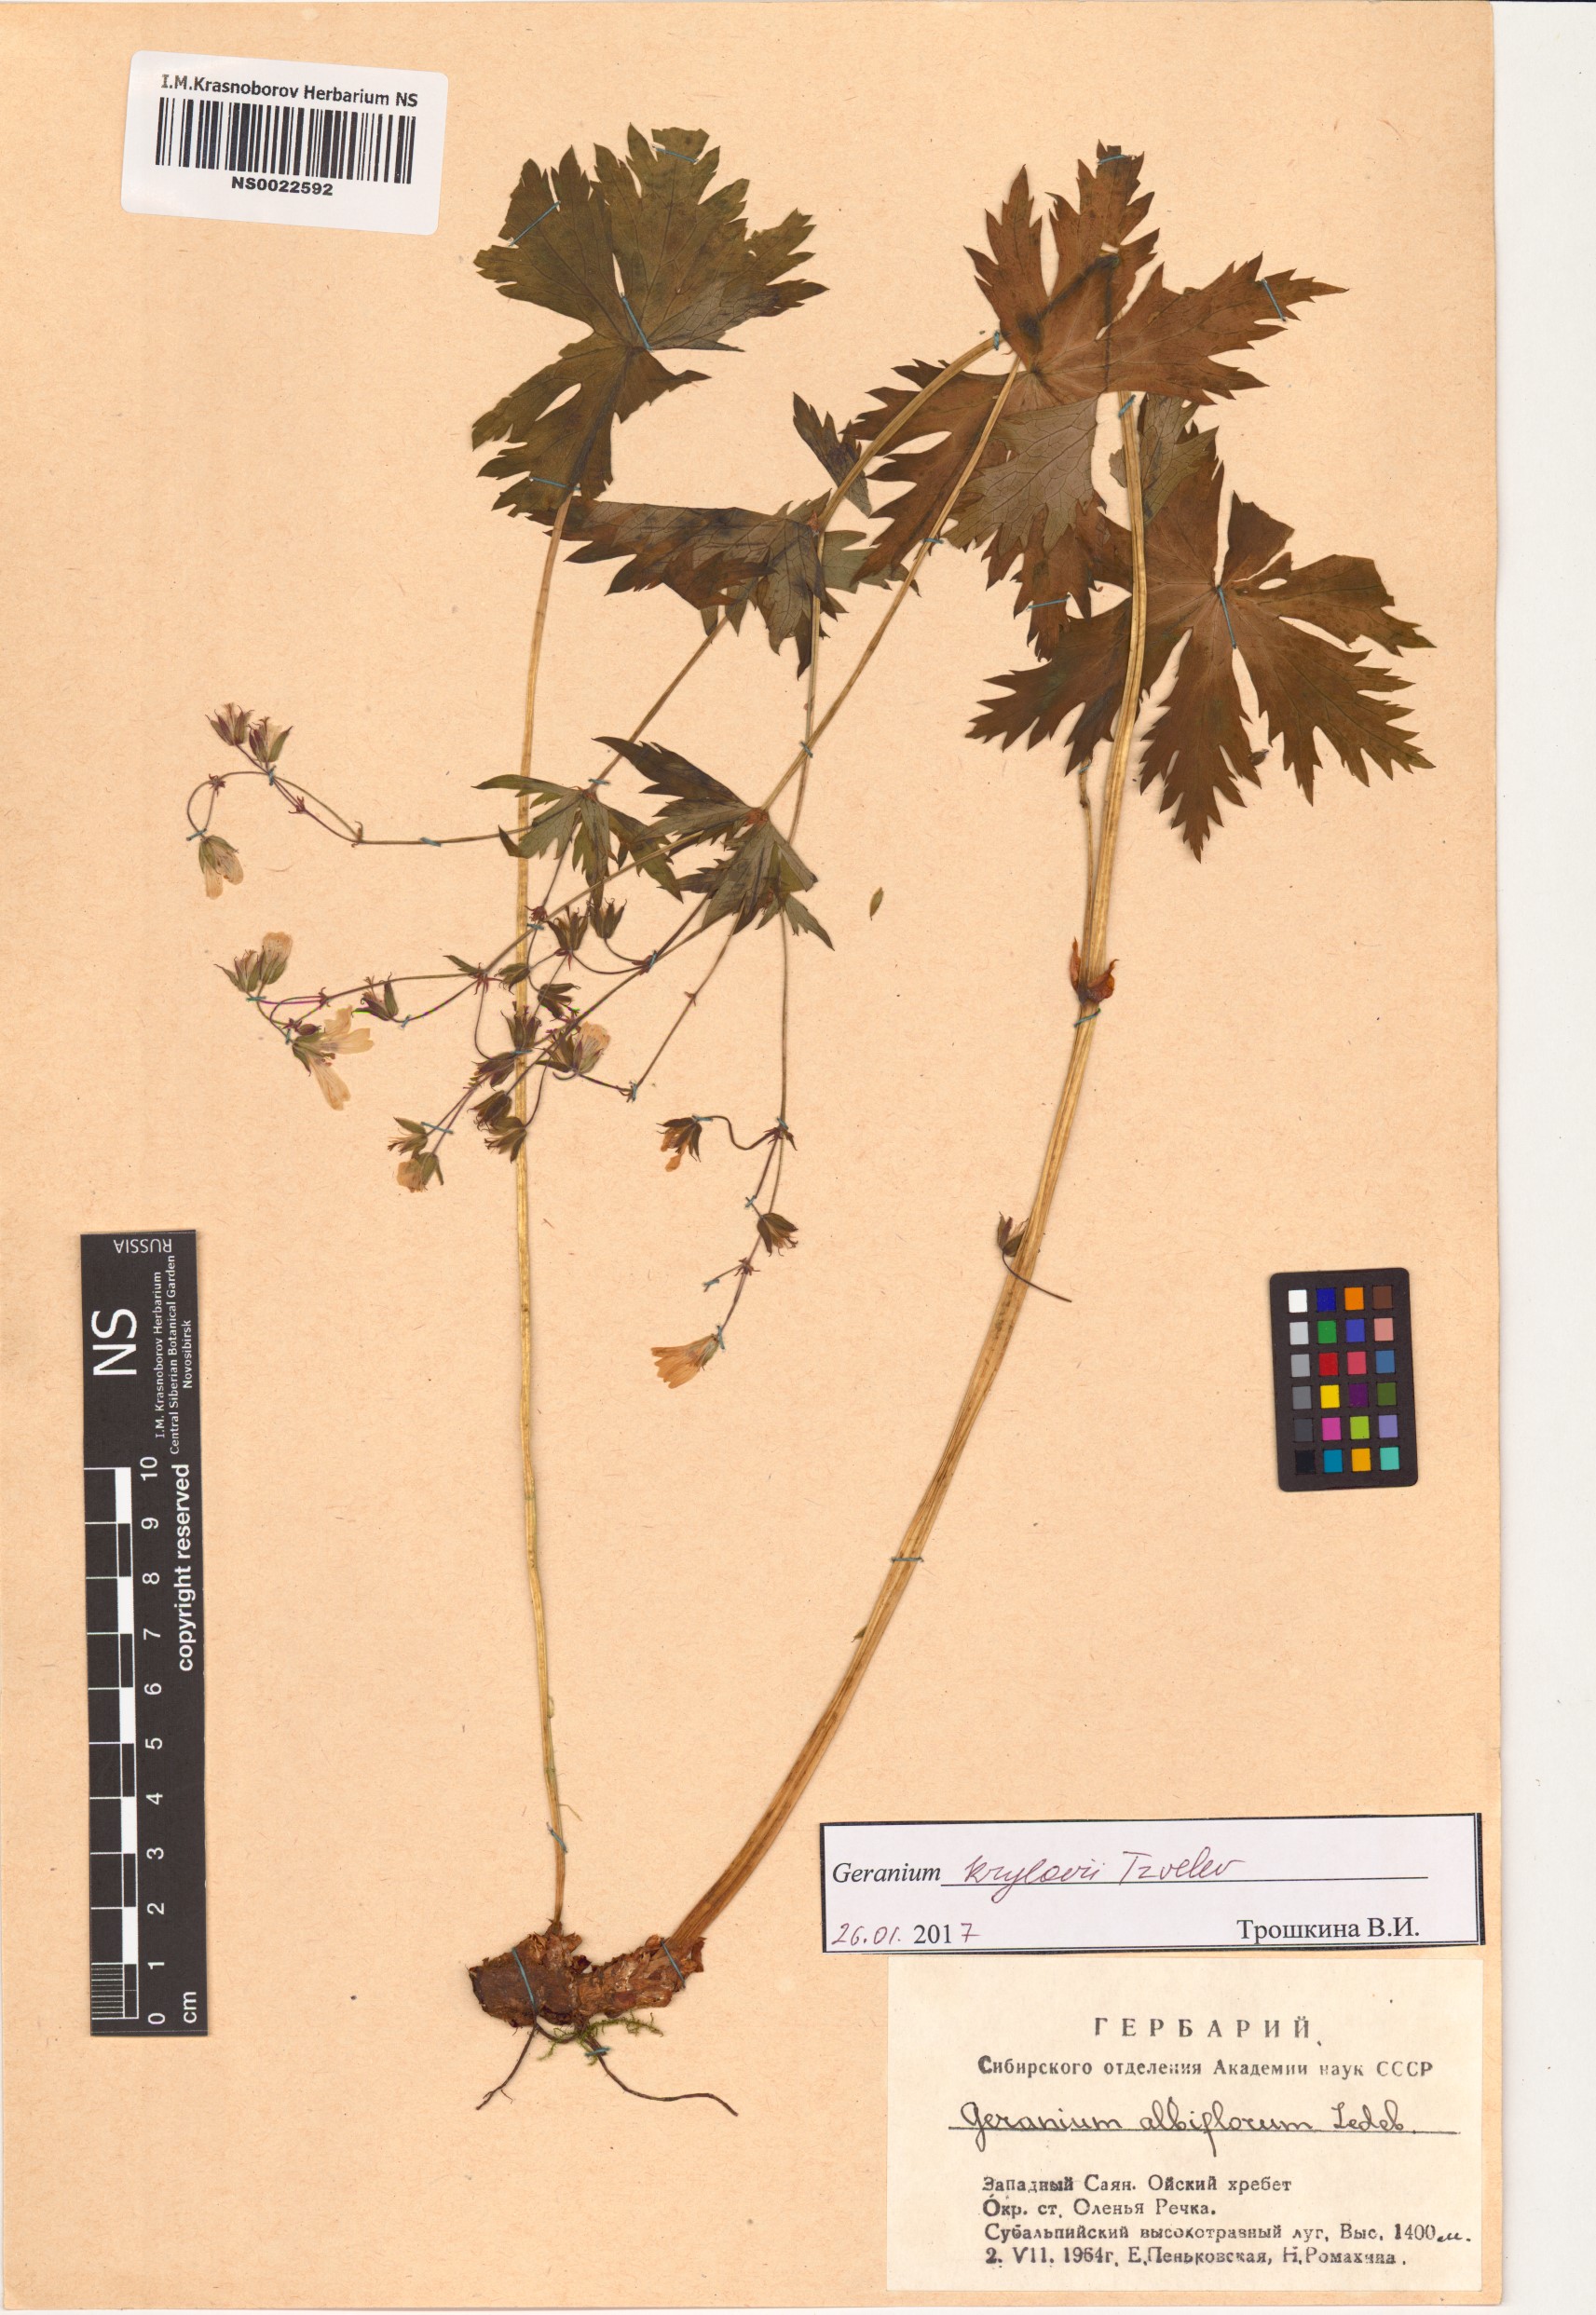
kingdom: Plantae
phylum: Tracheophyta
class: Magnoliopsida
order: Geraniales
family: Geraniaceae
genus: Geranium
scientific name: Geranium sylvaticum
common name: Wood crane's-bill
